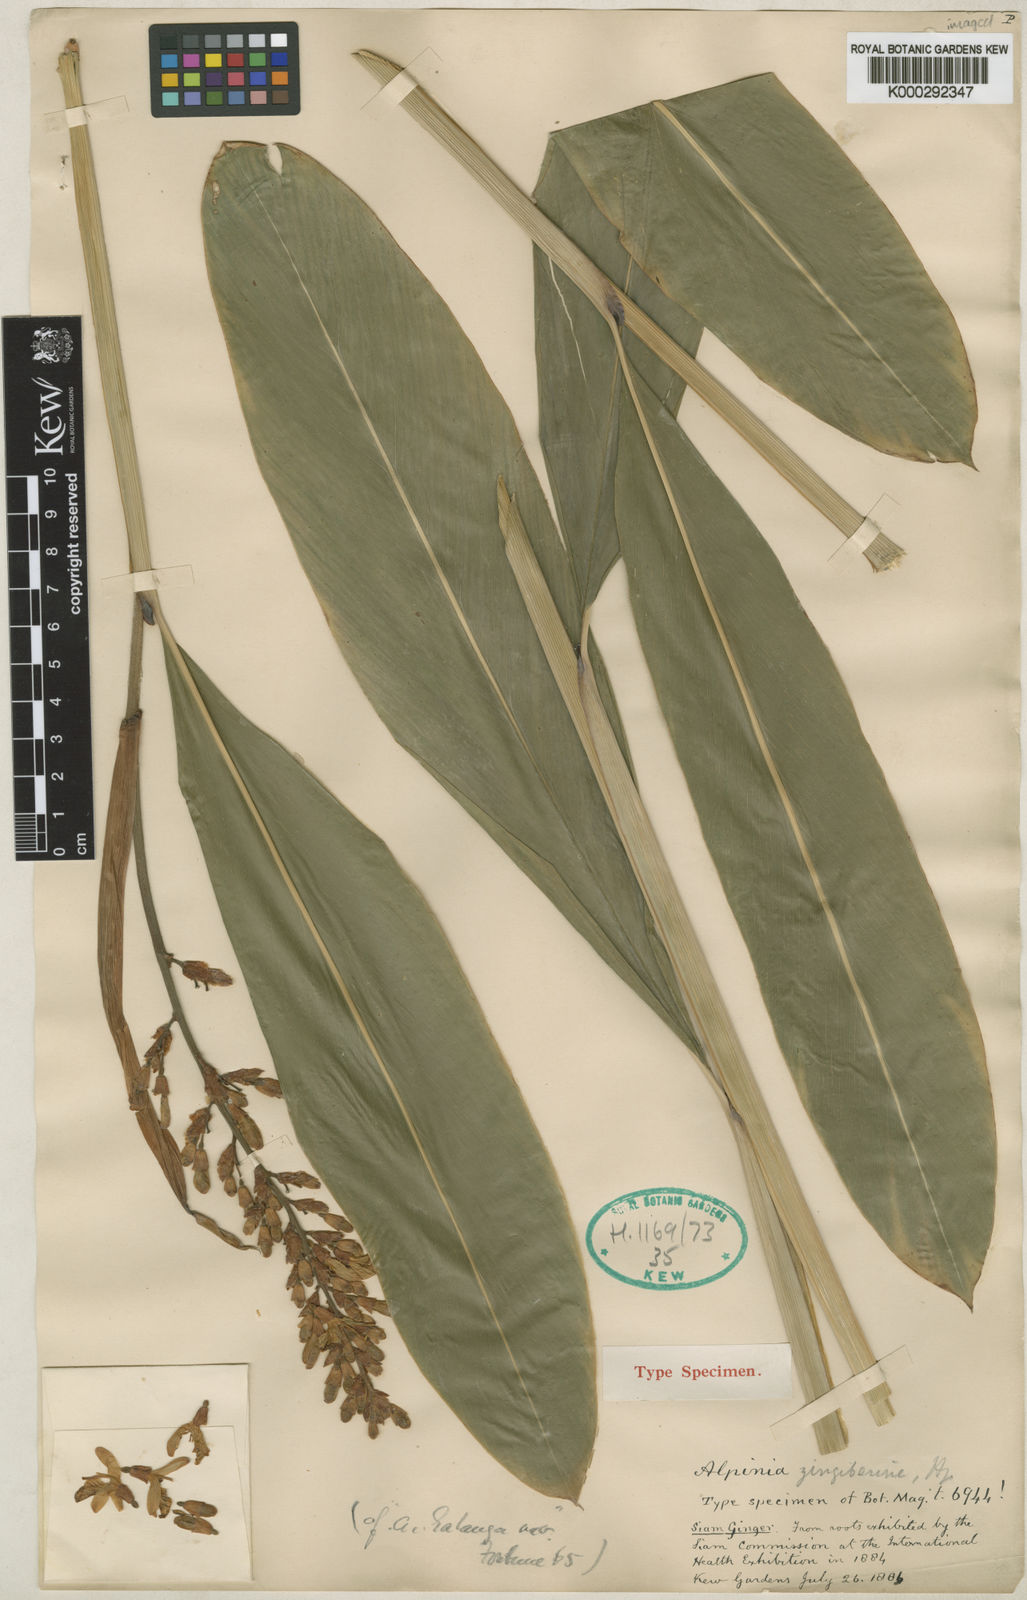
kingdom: Plantae
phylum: Tracheophyta
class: Liliopsida
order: Zingiberales
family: Zingiberaceae
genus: Alpinia
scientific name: Alpinia siamensis
